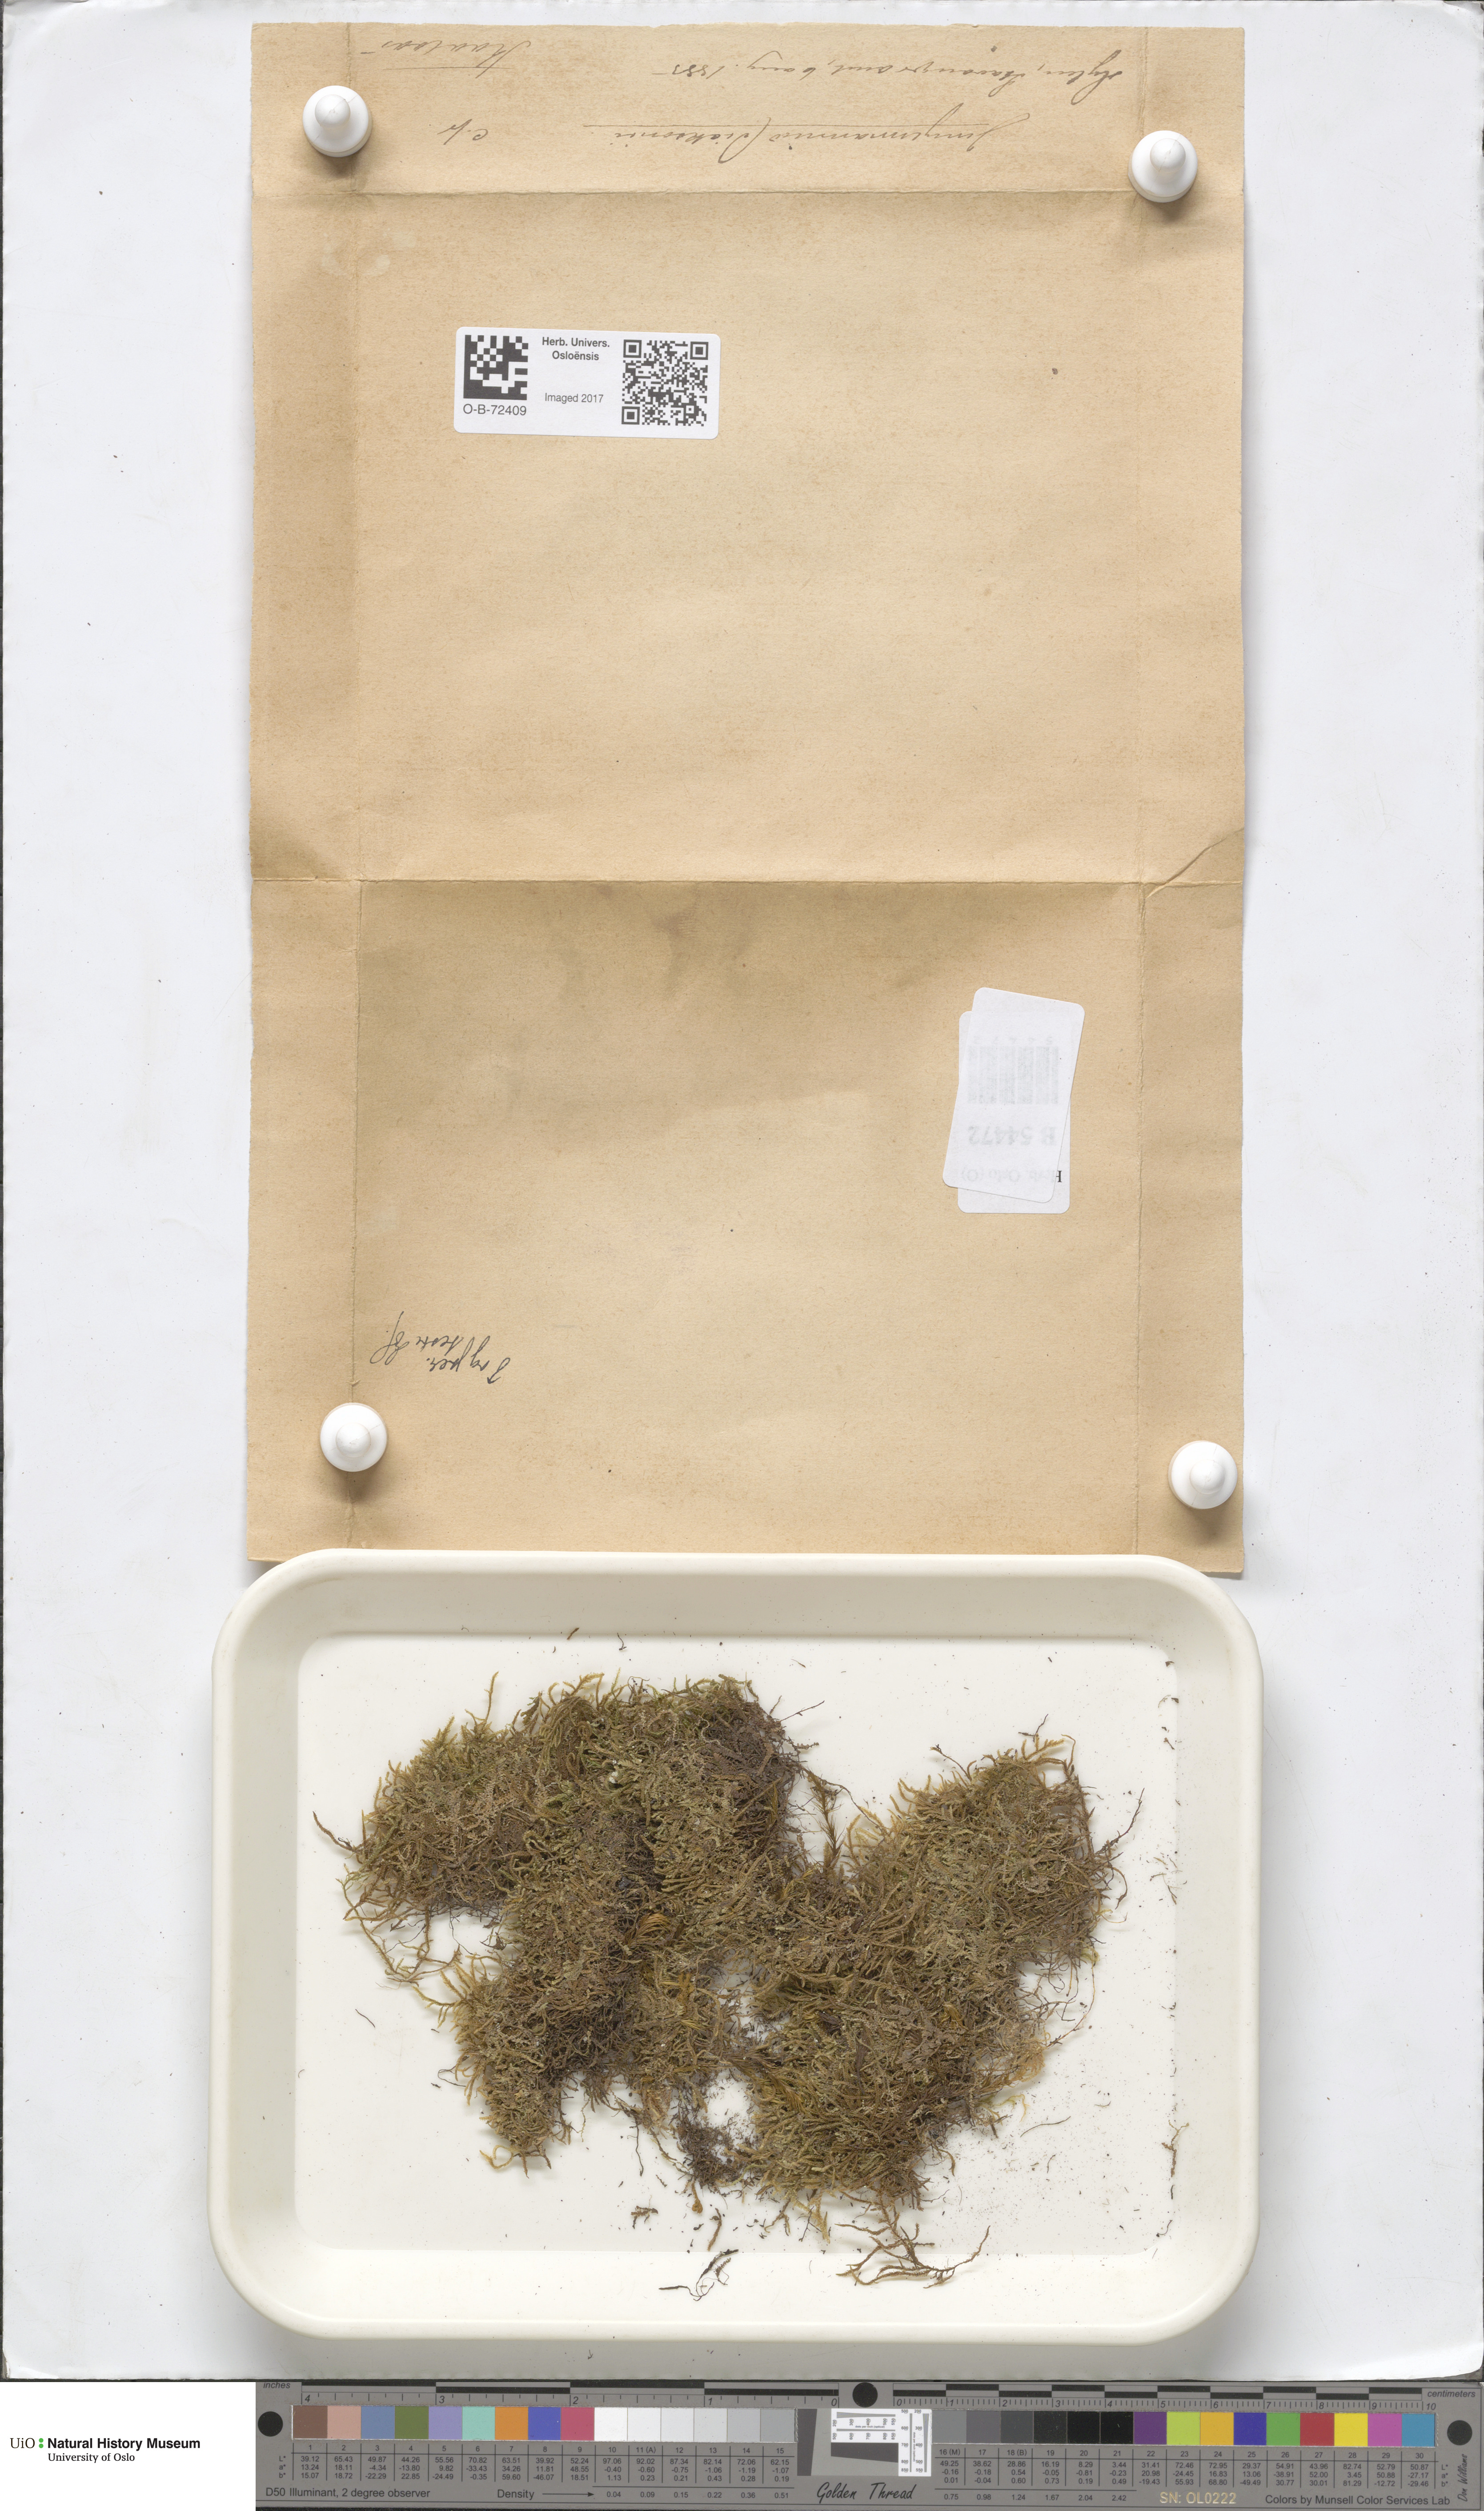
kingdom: Plantae
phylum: Marchantiophyta
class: Jungermanniopsida
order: Jungermanniales
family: Scapaniaceae
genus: Douinia
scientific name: Douinia ovata
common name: Waxy earwort
